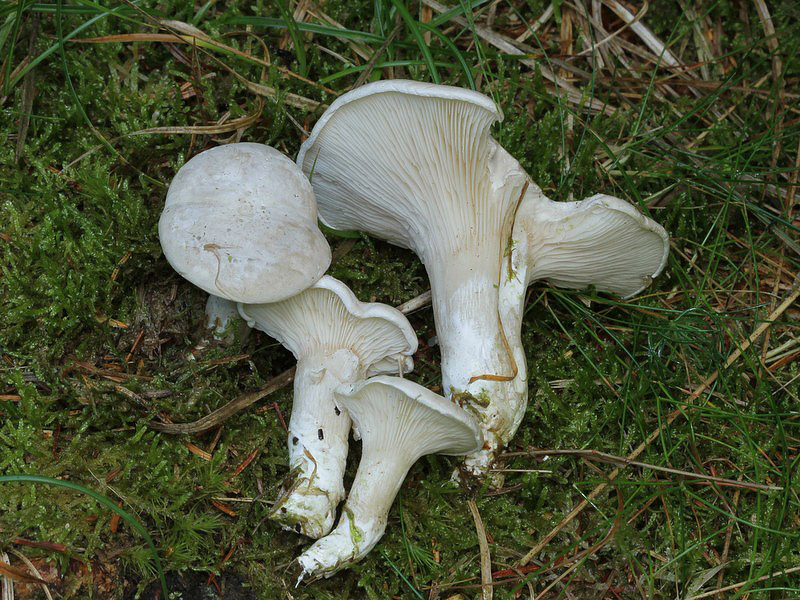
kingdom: Fungi
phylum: Basidiomycota
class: Agaricomycetes
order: Agaricales
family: Entolomataceae
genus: Clitopilus
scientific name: Clitopilus prunulus
